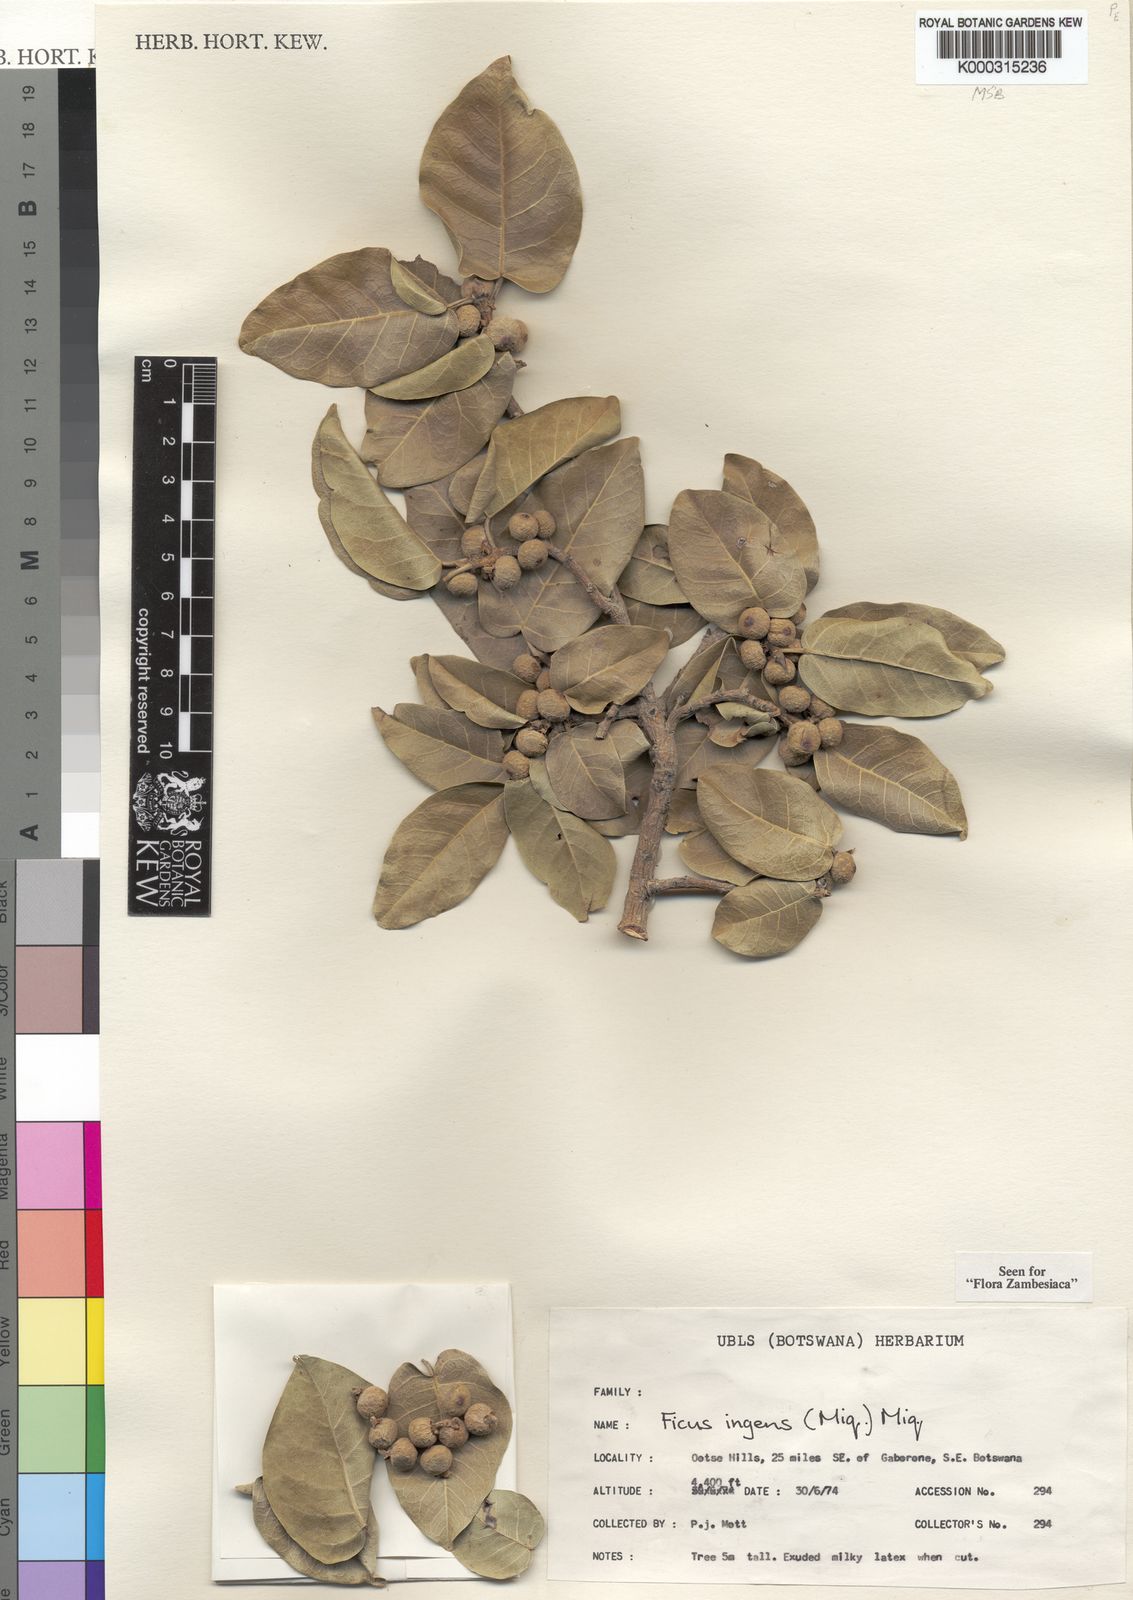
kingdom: Plantae
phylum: Tracheophyta
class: Magnoliopsida
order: Rosales
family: Moraceae
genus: Ficus
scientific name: Ficus ingens
